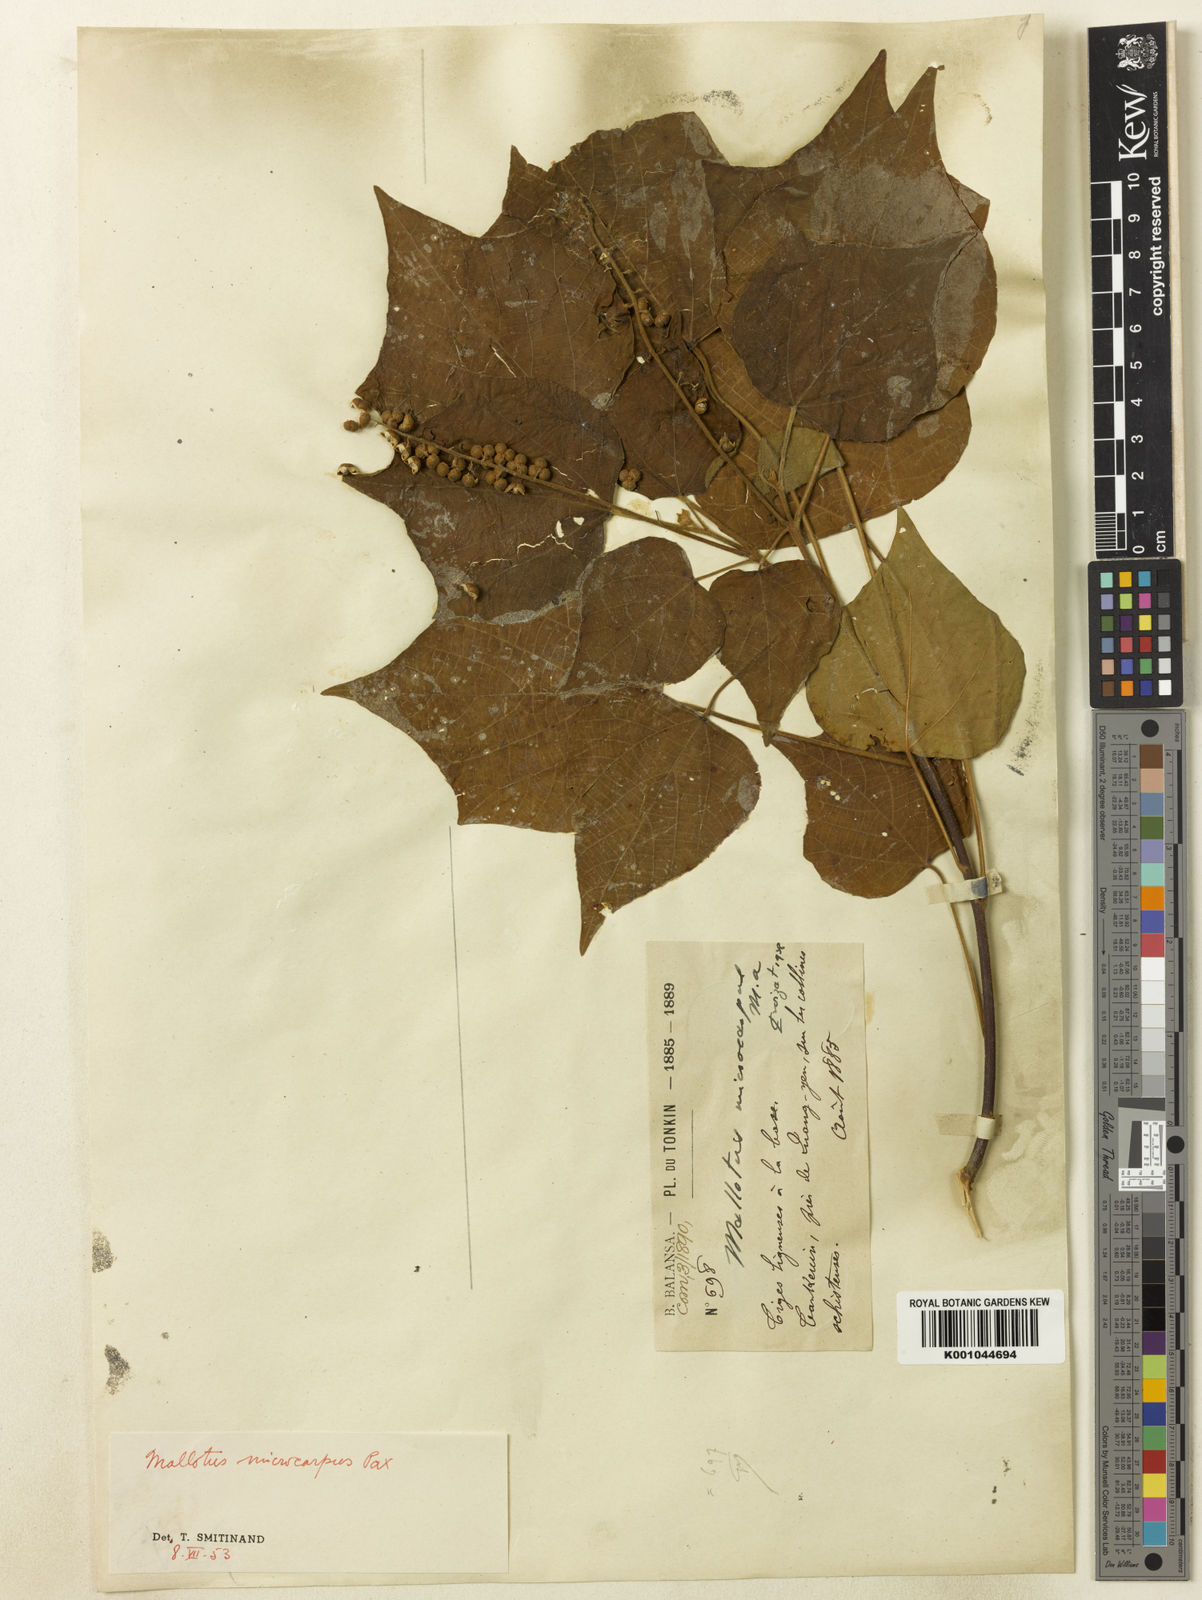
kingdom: Plantae
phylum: Tracheophyta
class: Magnoliopsida
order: Malpighiales
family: Euphorbiaceae
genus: Mallotus
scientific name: Mallotus microcarpus
